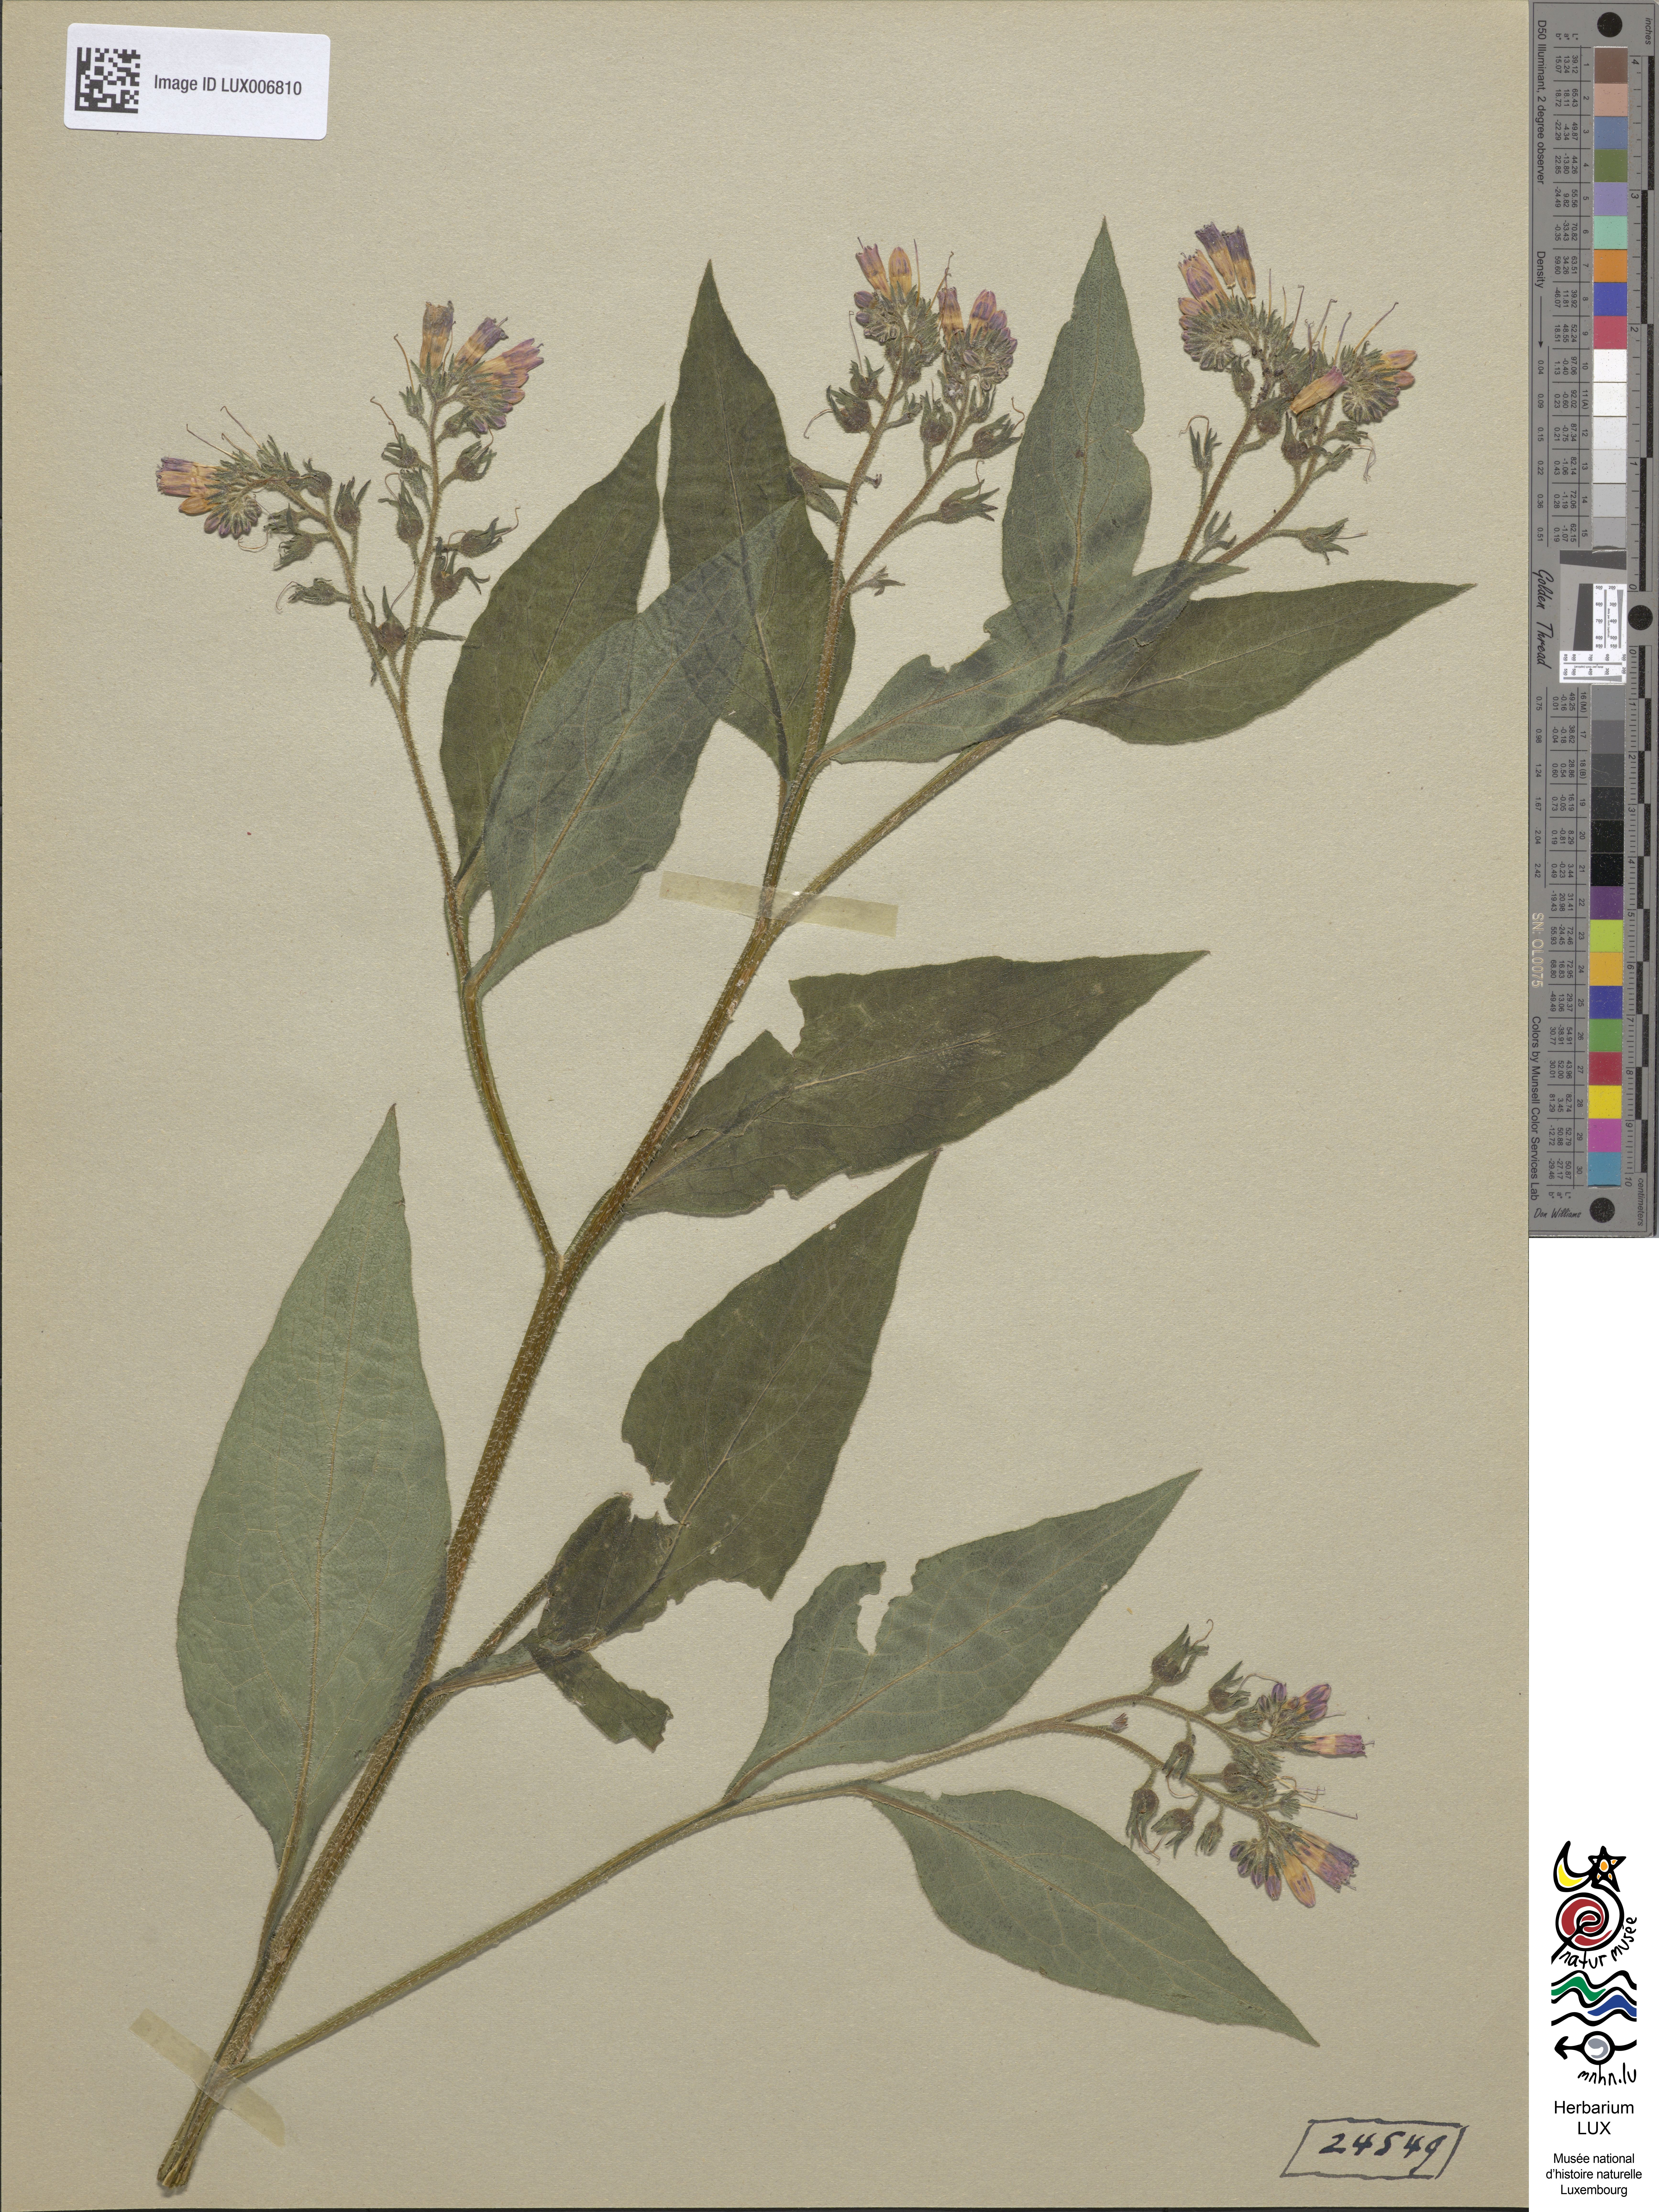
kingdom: Plantae
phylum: Tracheophyta
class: Magnoliopsida
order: Boraginales
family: Boraginaceae
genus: Symphytum
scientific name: Symphytum uplandicum
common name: Russian comfrey
